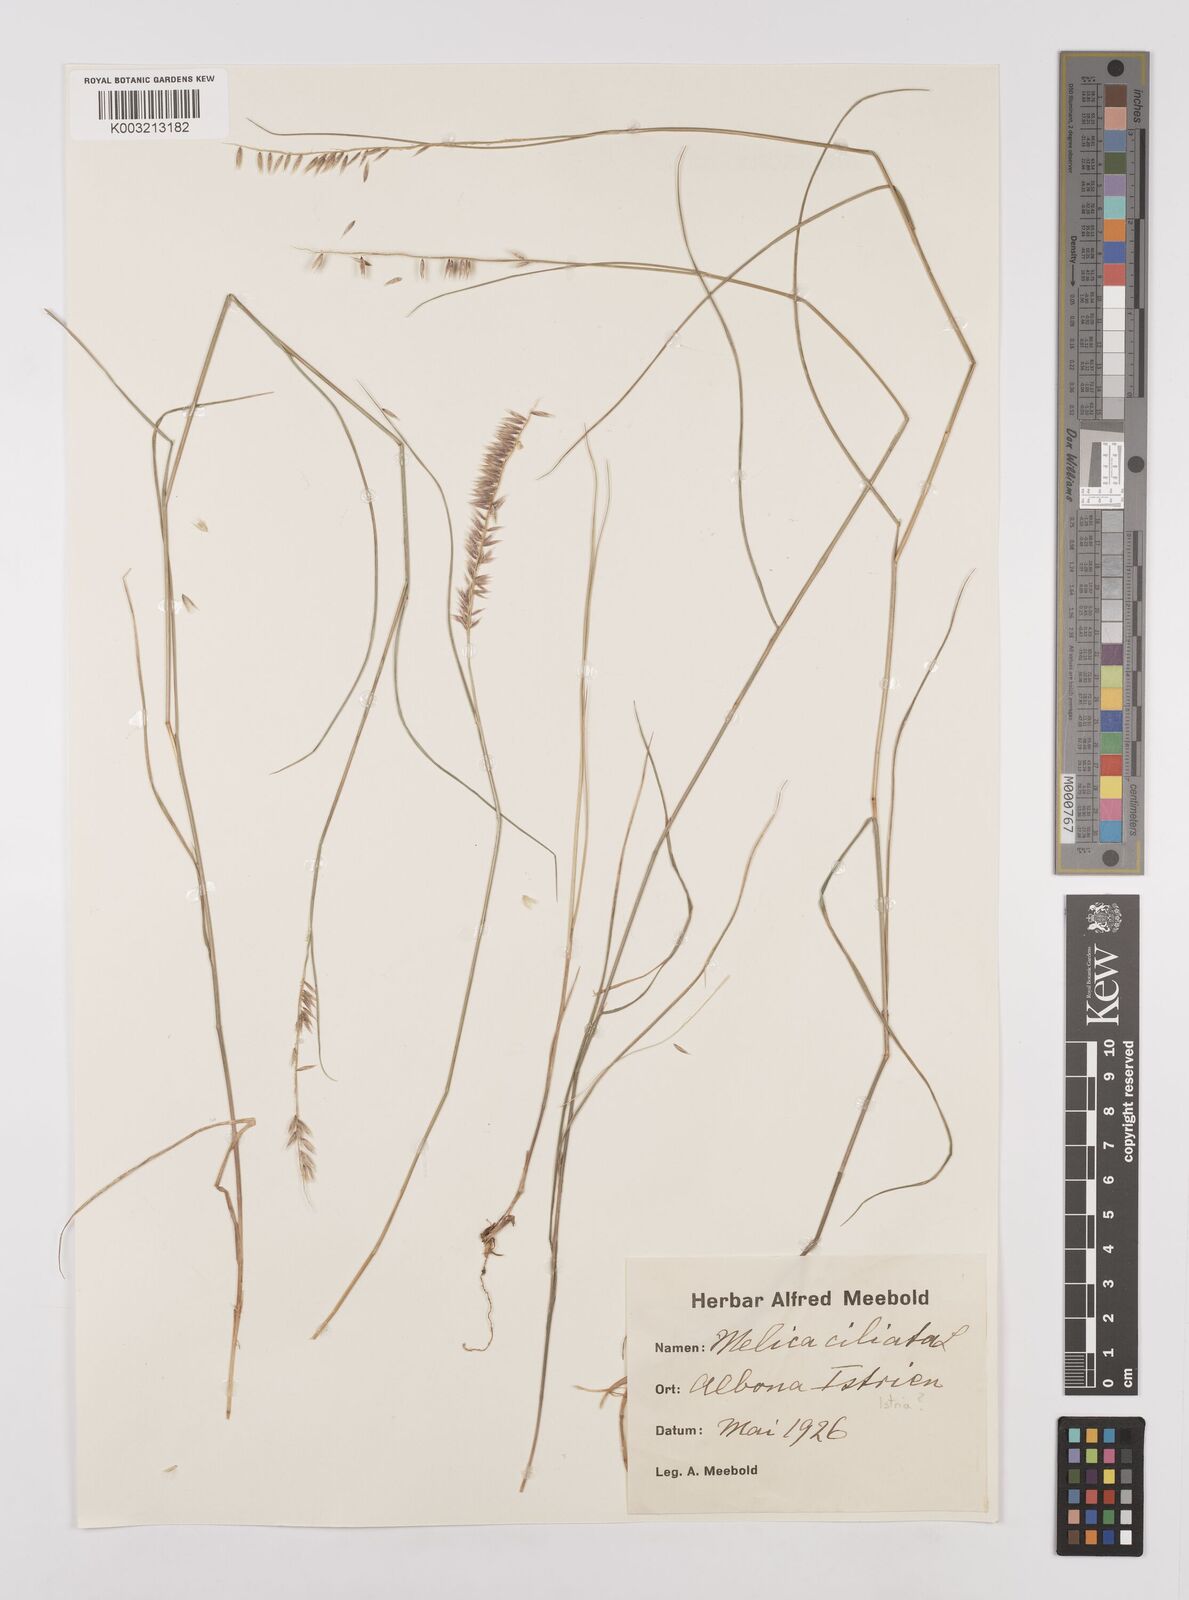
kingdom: Plantae
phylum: Tracheophyta
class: Liliopsida
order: Poales
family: Poaceae
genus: Melica
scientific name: Melica ciliata
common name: Hairy melicgrass
